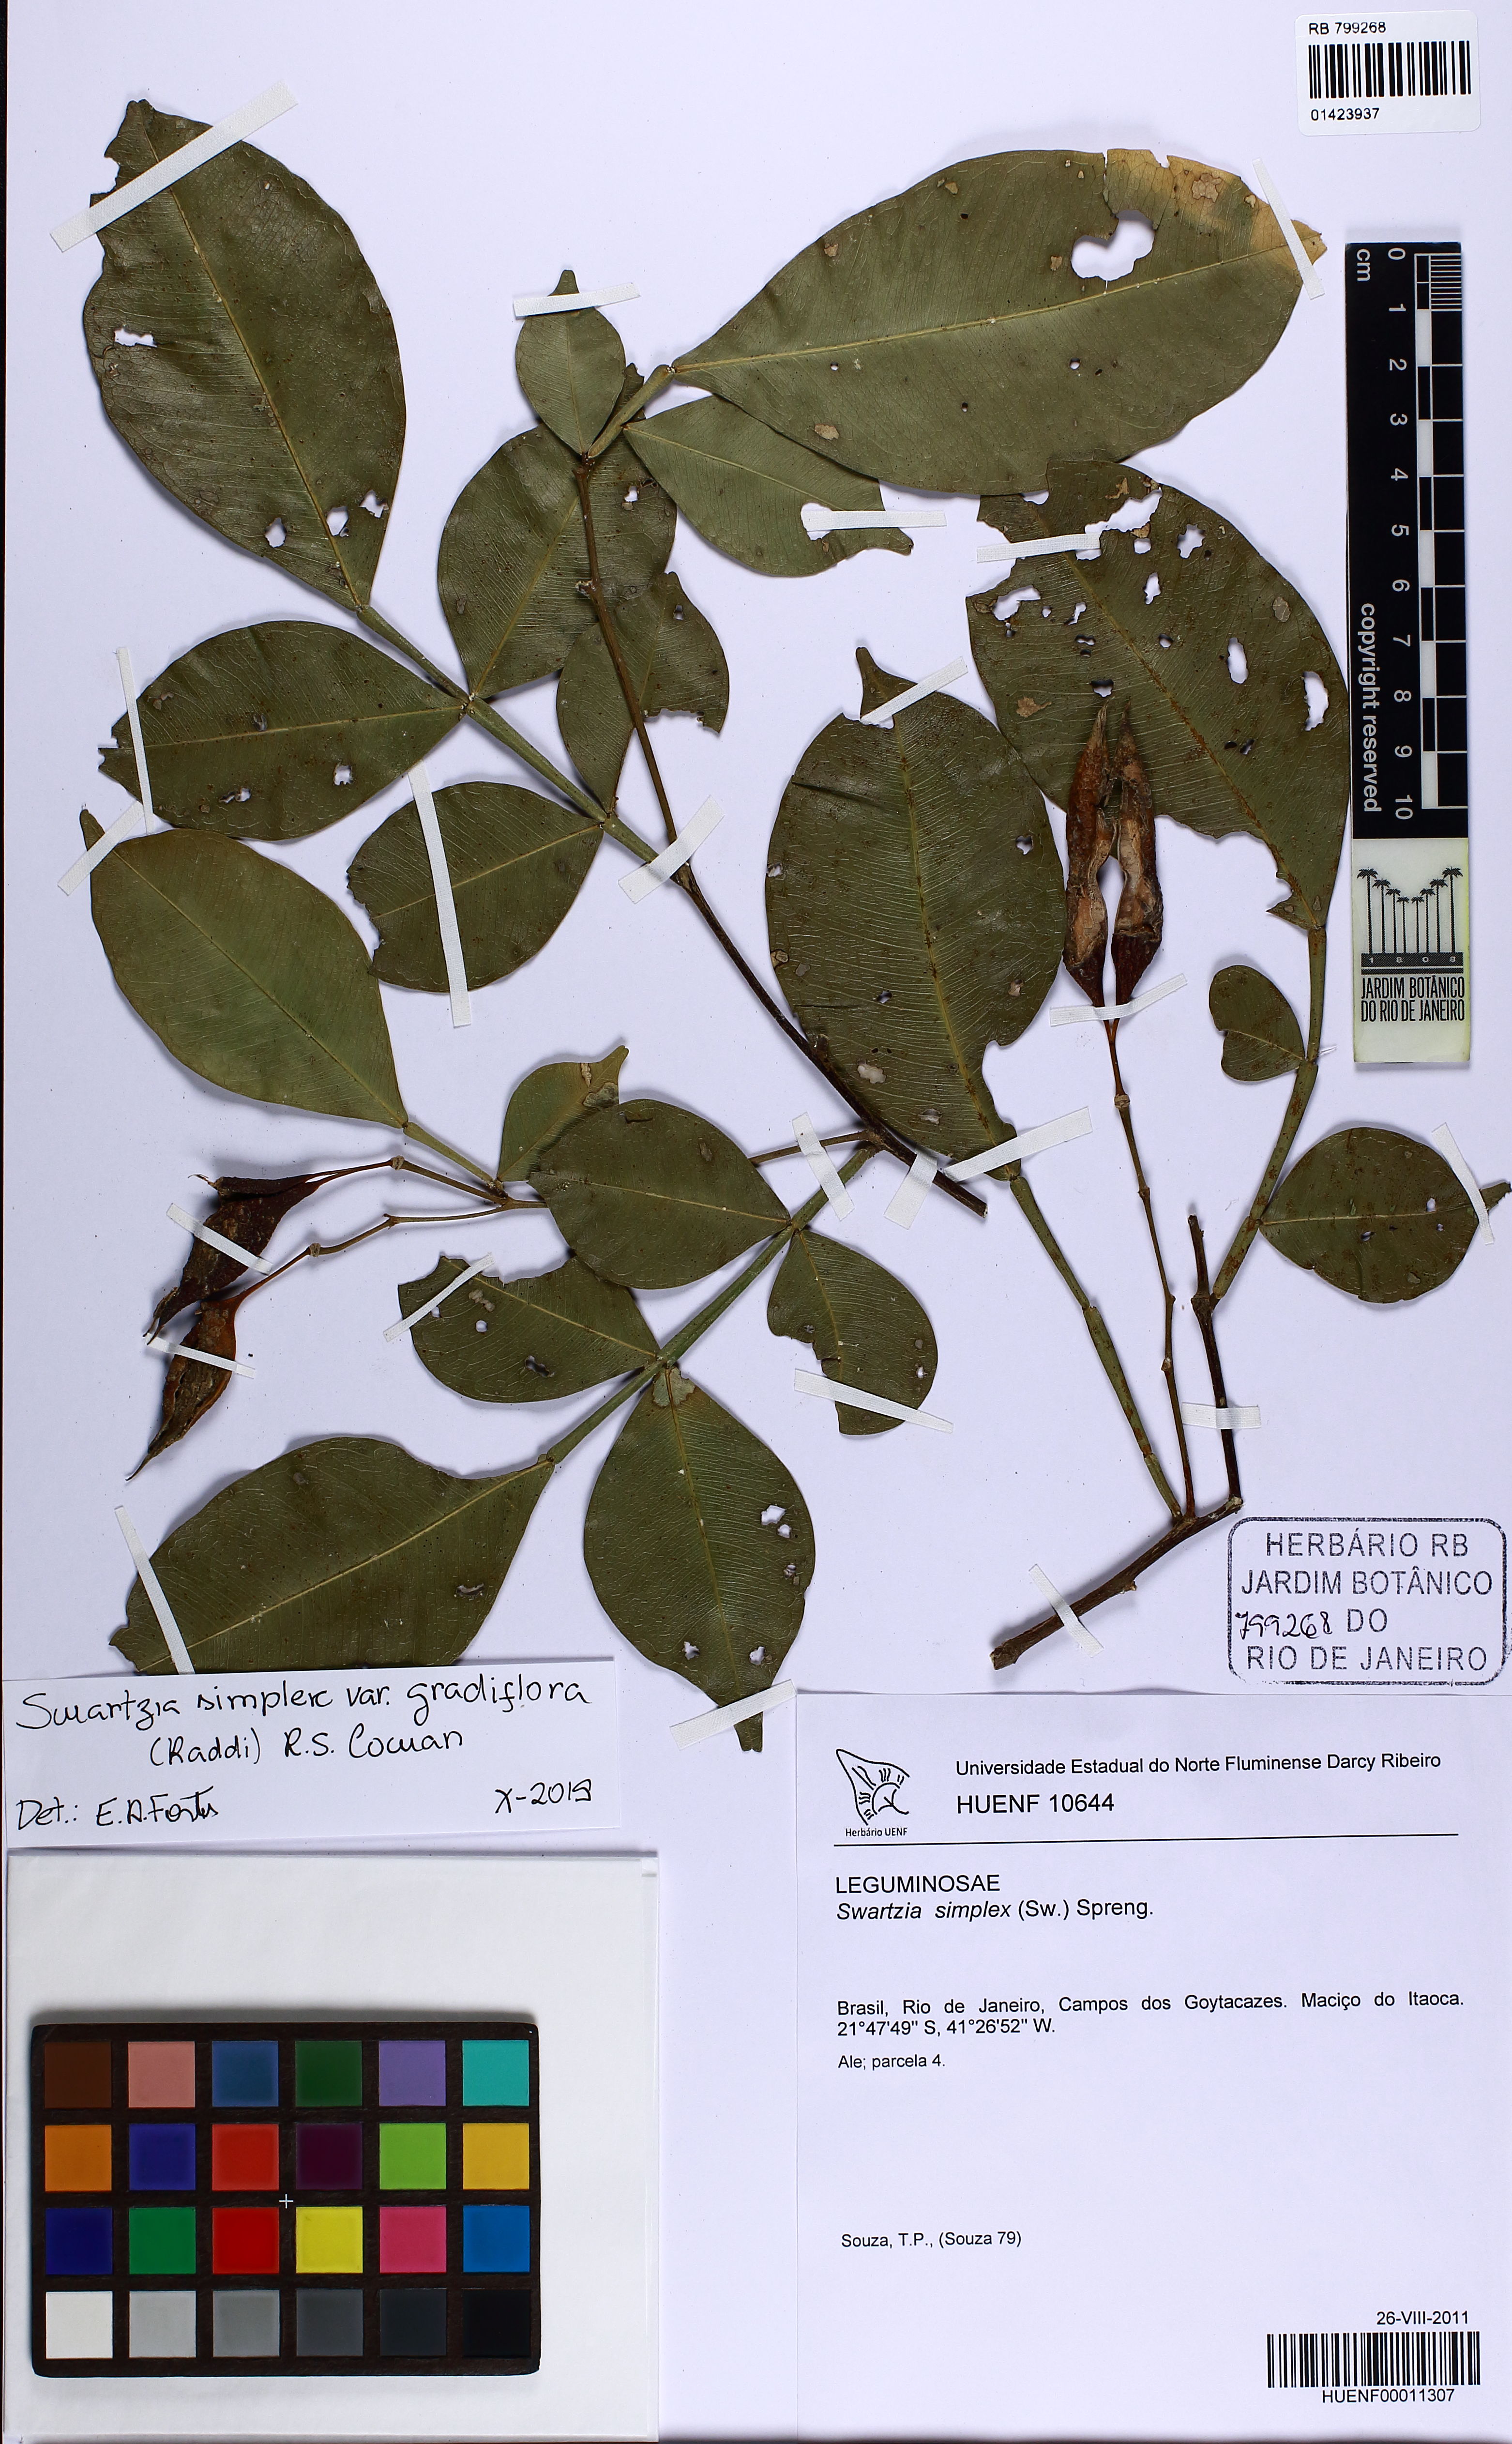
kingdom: Plantae
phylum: Tracheophyta
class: Magnoliopsida
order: Fabales
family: Fabaceae
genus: Swartzia
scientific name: Swartzia simplex
